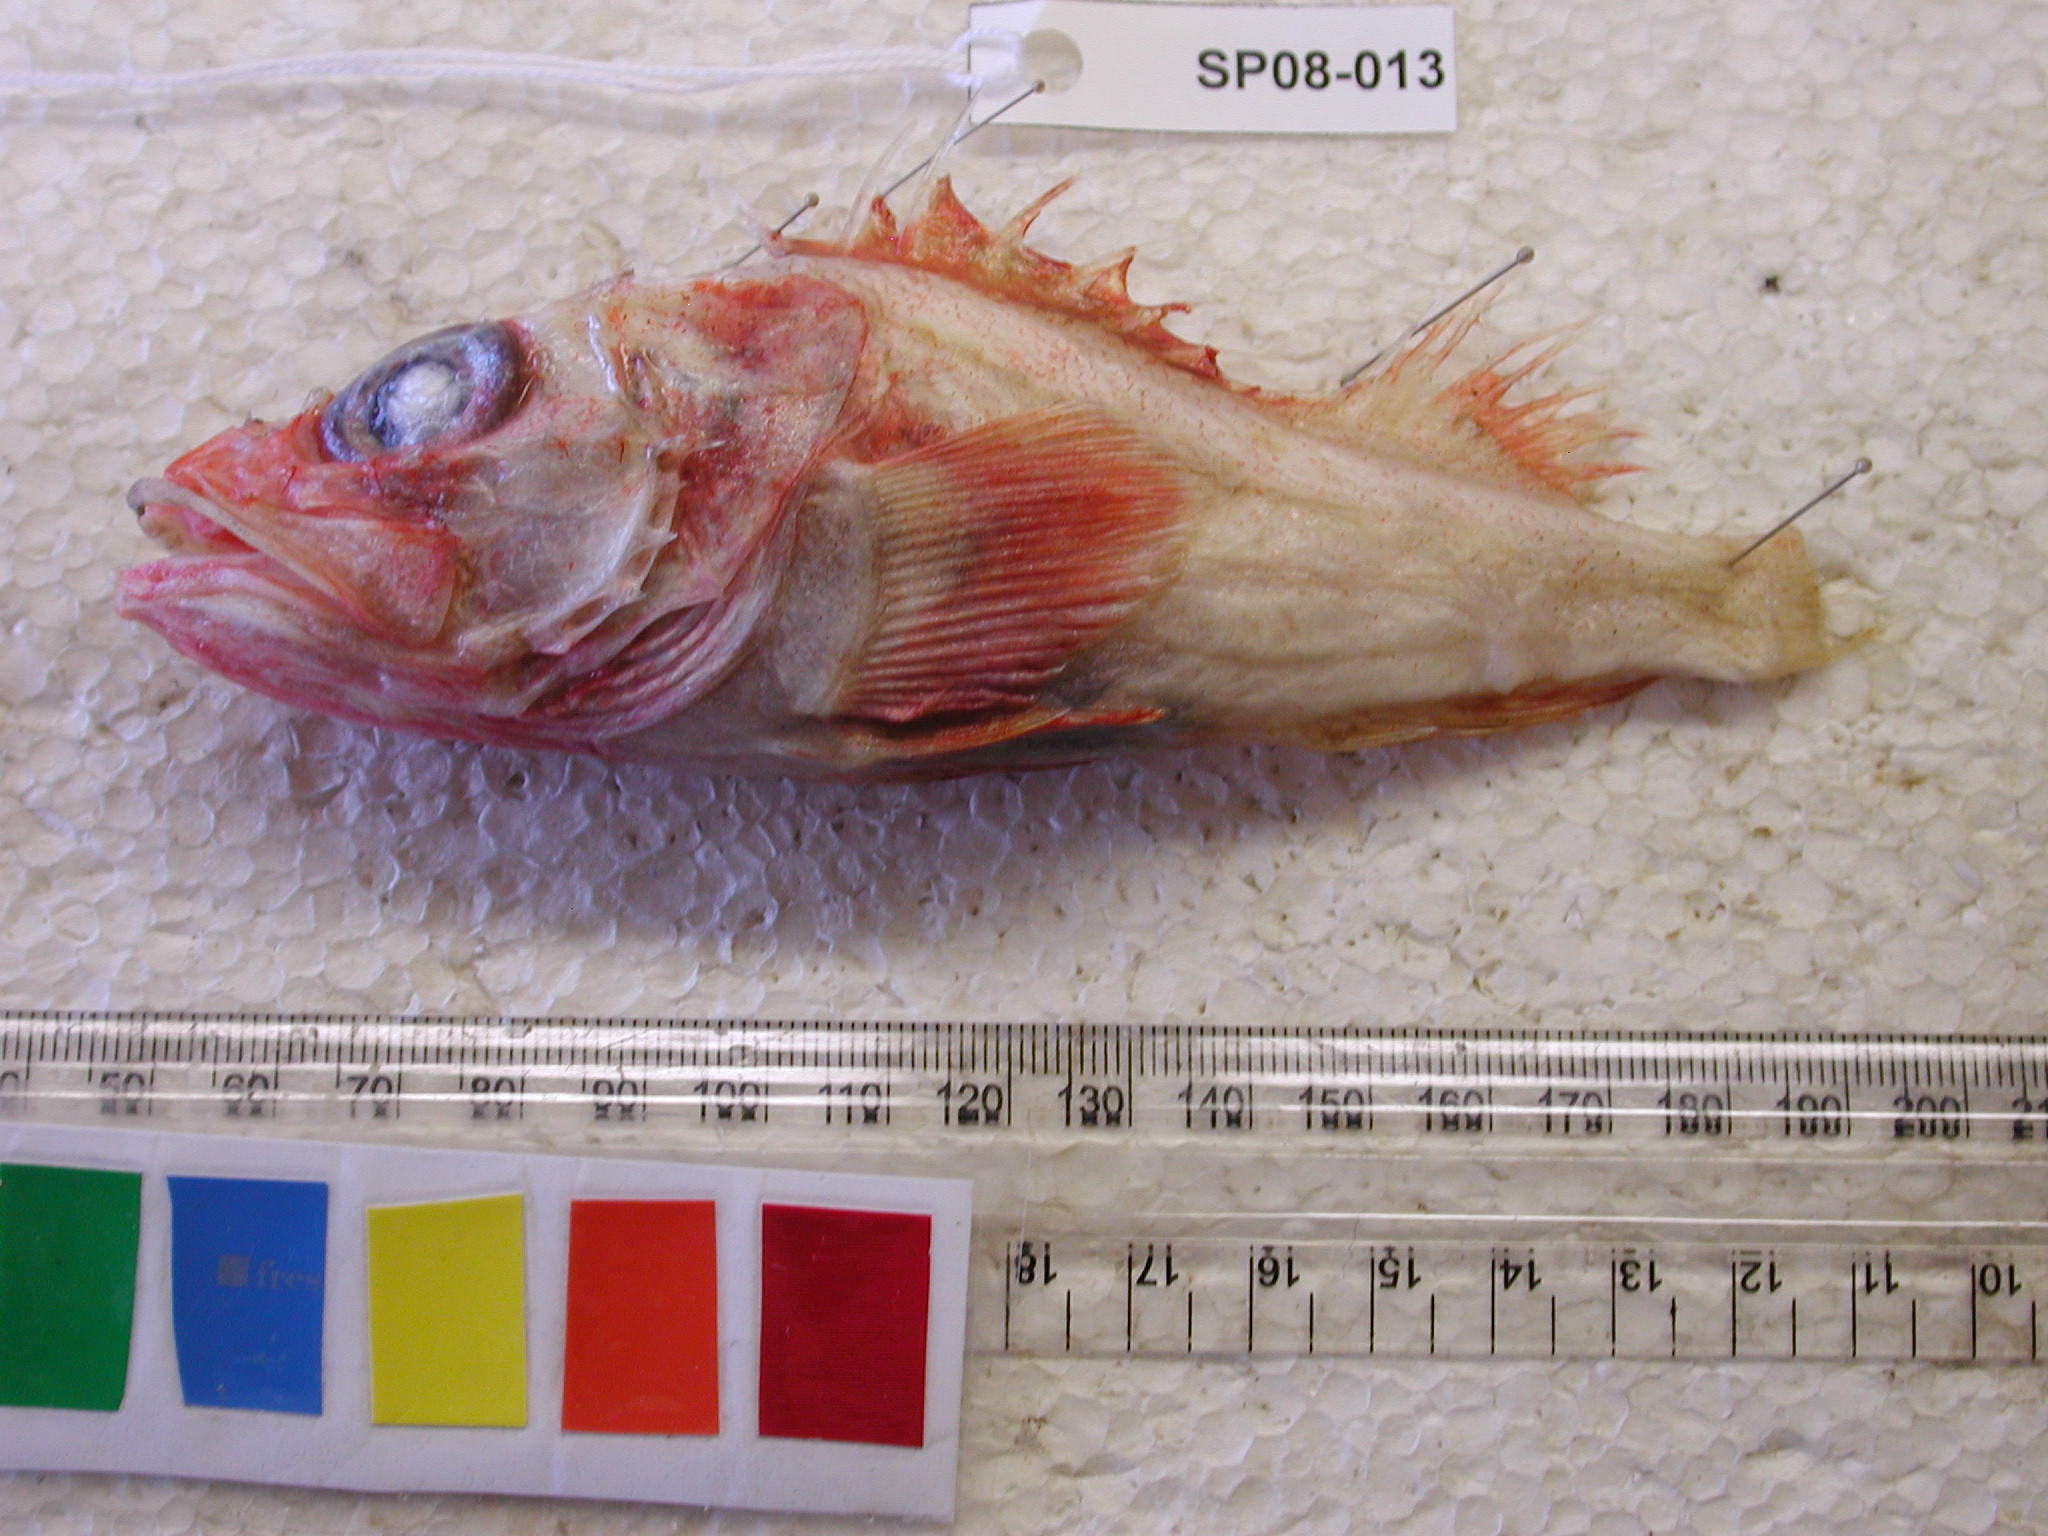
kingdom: Animalia
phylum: Chordata
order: Scorpaeniformes
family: Sebastidae
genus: Trachyscorpia
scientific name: Trachyscorpia eschmeyeri
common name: Cape scorpionfish
